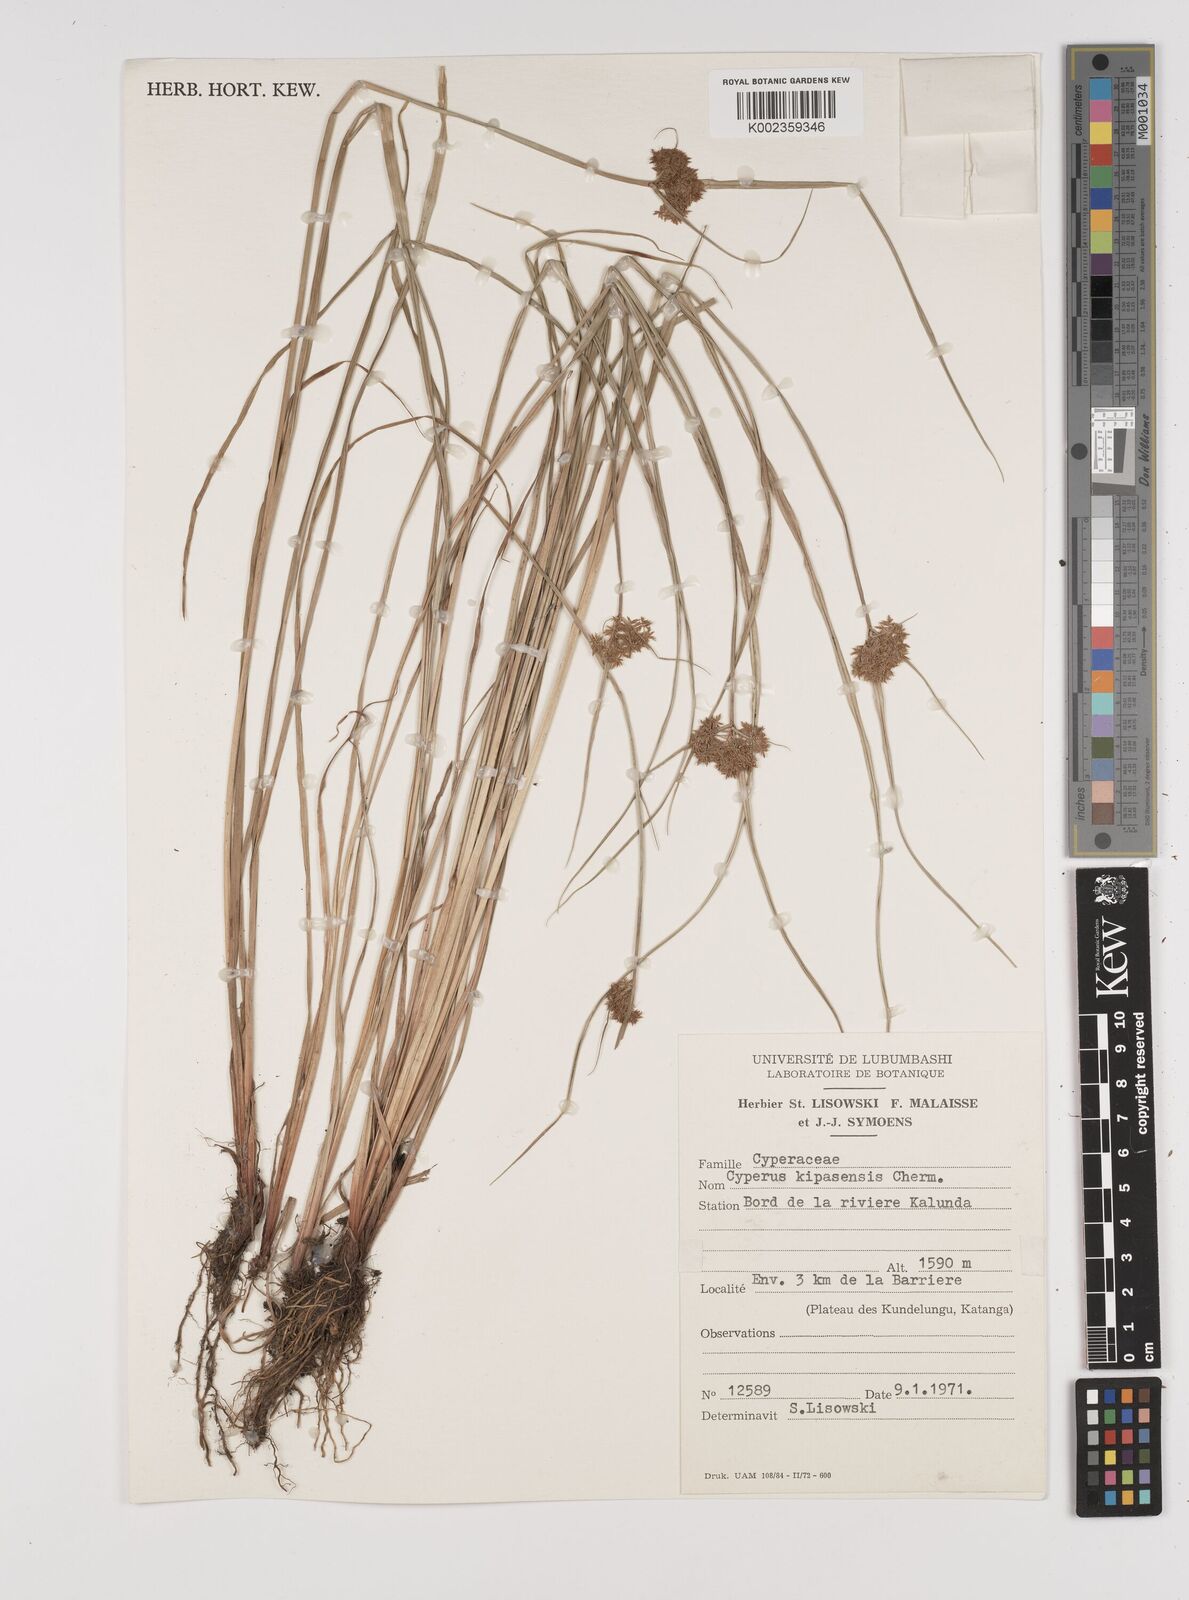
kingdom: Plantae
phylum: Tracheophyta
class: Liliopsida
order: Poales
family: Cyperaceae
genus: Cyperus
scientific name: Cyperus kipasensis
